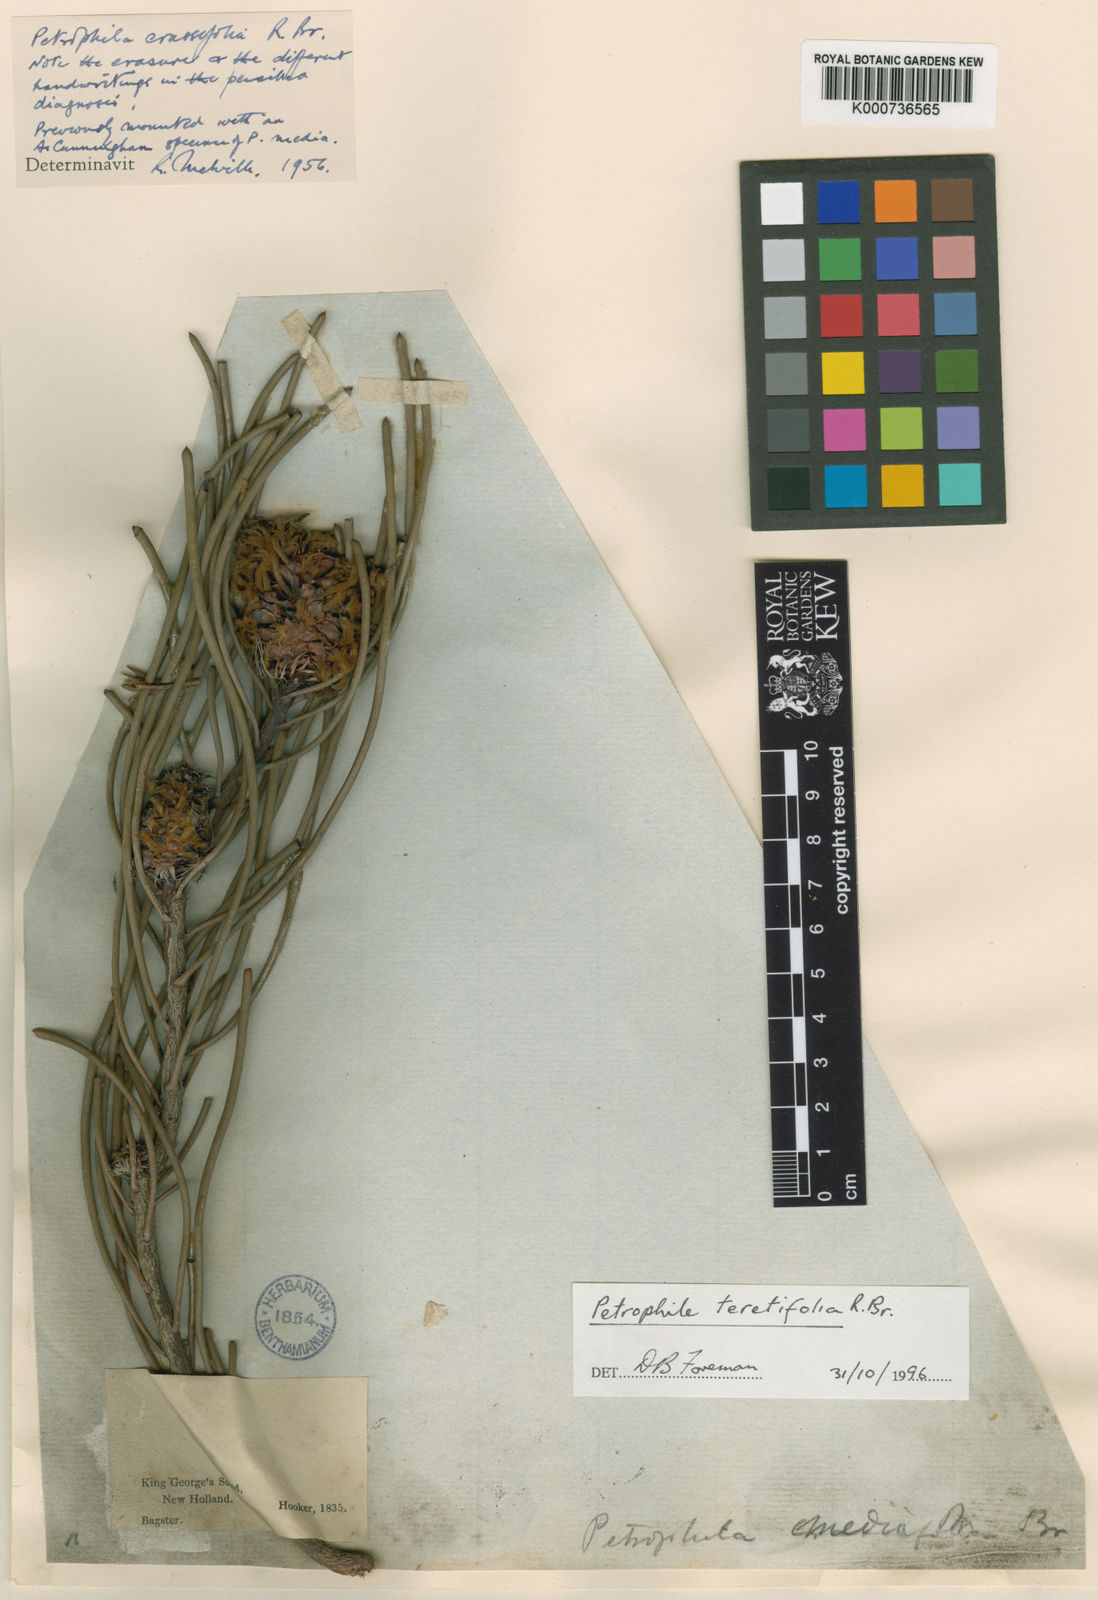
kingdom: Plantae
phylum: Tracheophyta
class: Magnoliopsida
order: Proteales
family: Proteaceae
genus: Petrophile
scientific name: Petrophile teretifolia
